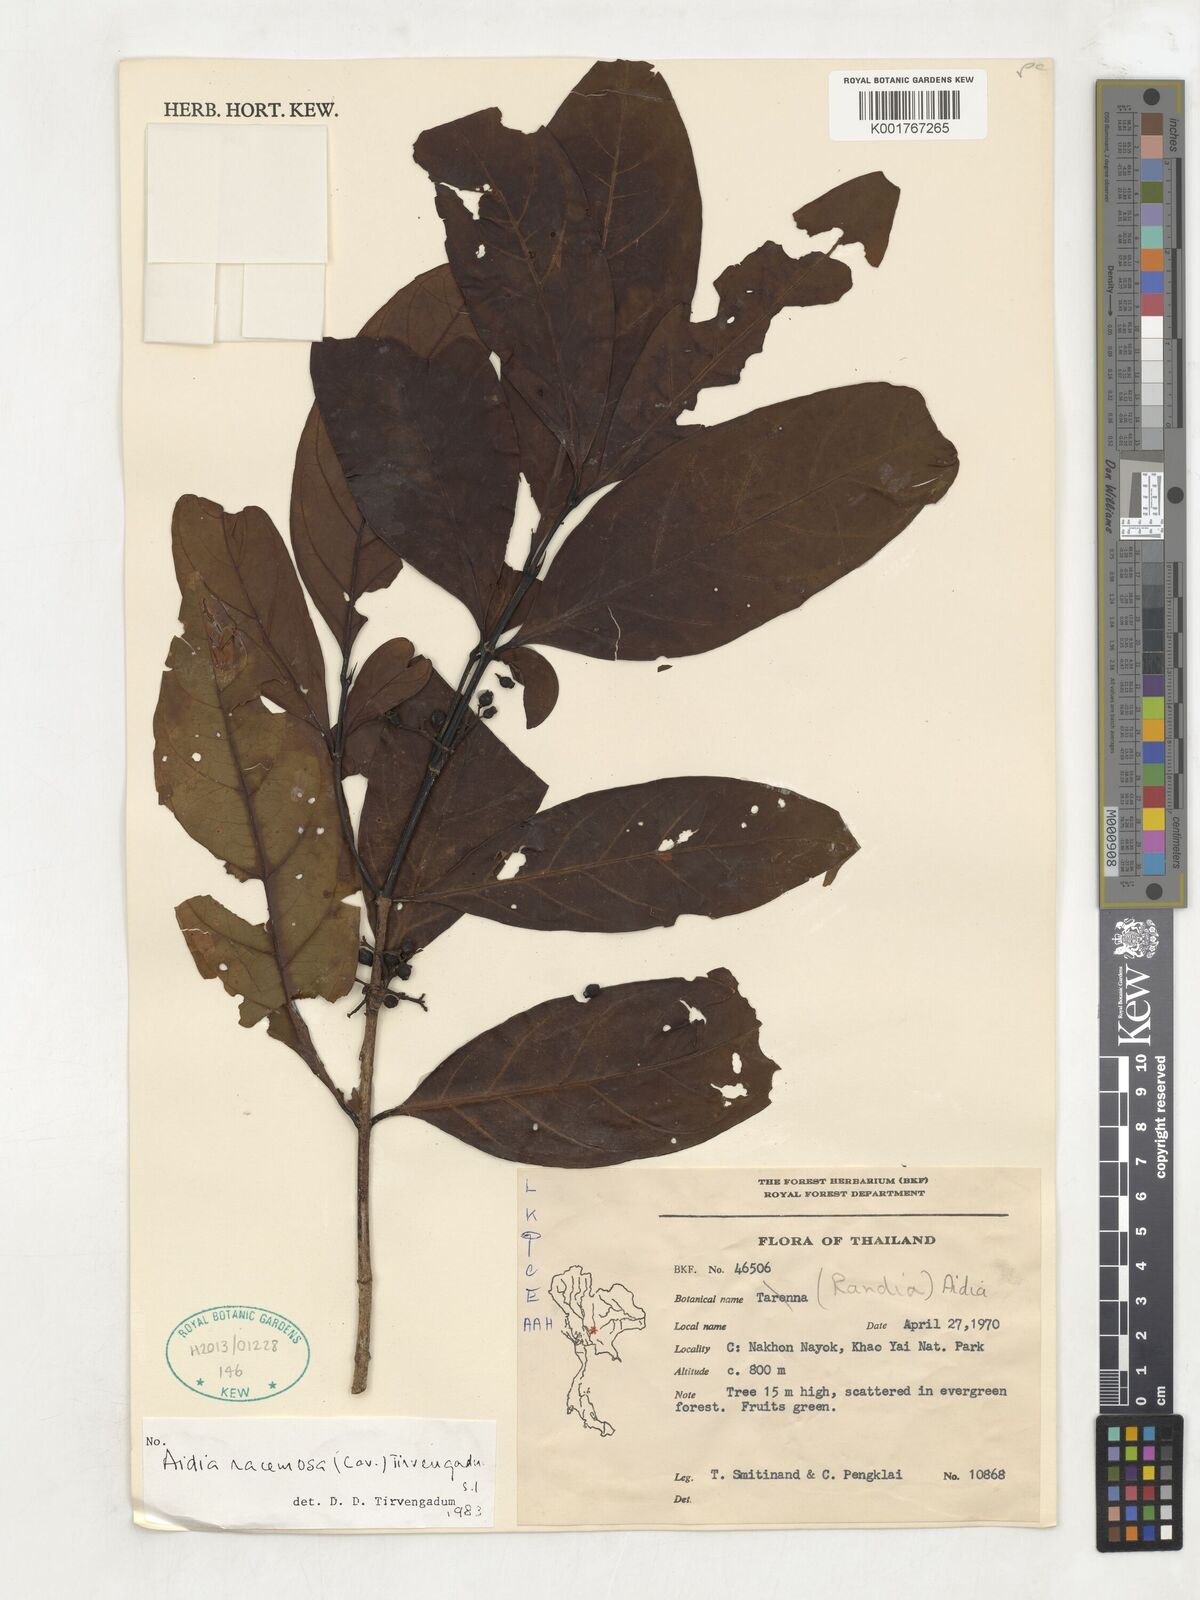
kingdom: Plantae
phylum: Tracheophyta
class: Magnoliopsida
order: Gentianales
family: Rubiaceae
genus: Aidia
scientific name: Aidia racemosa
